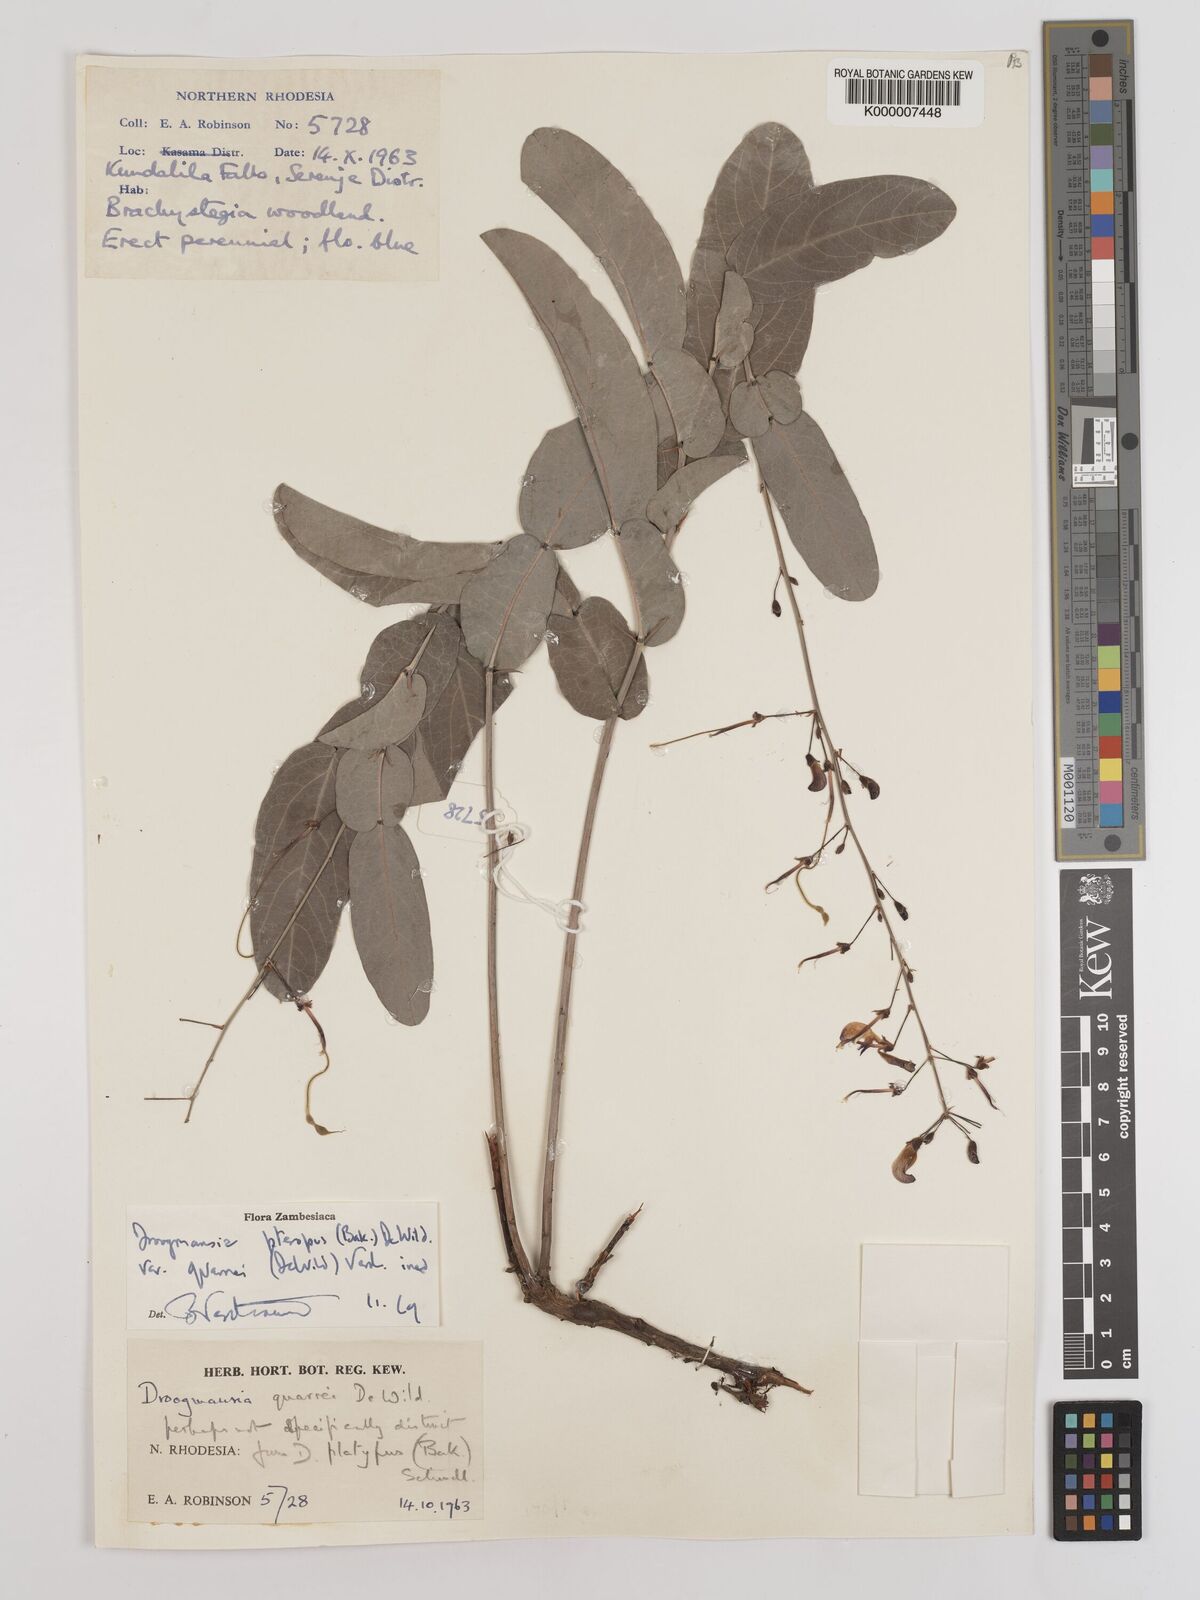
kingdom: Plantae
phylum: Tracheophyta
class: Magnoliopsida
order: Fabales
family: Fabaceae
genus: Droogmansia
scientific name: Droogmansia pteropus
